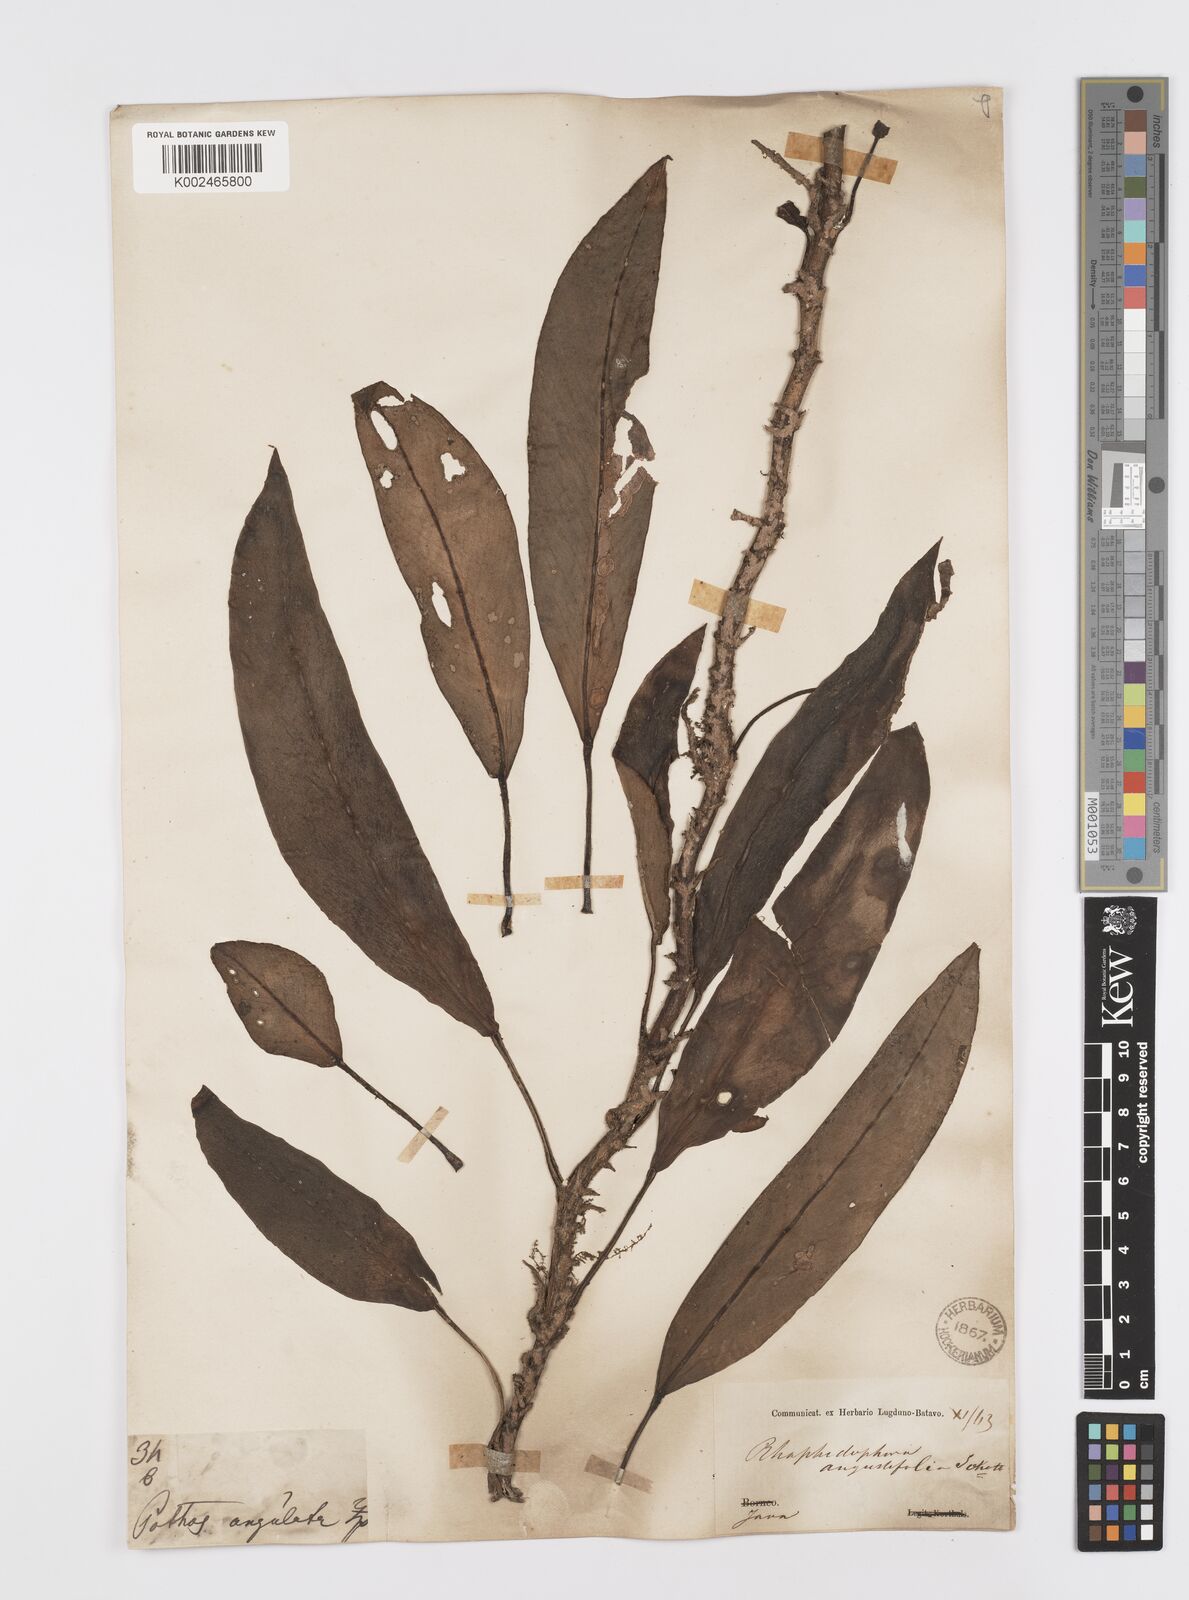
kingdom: Plantae
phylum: Tracheophyta
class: Liliopsida
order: Alismatales
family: Araceae
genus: Rhaphidophora
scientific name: Rhaphidophora sylvestris
